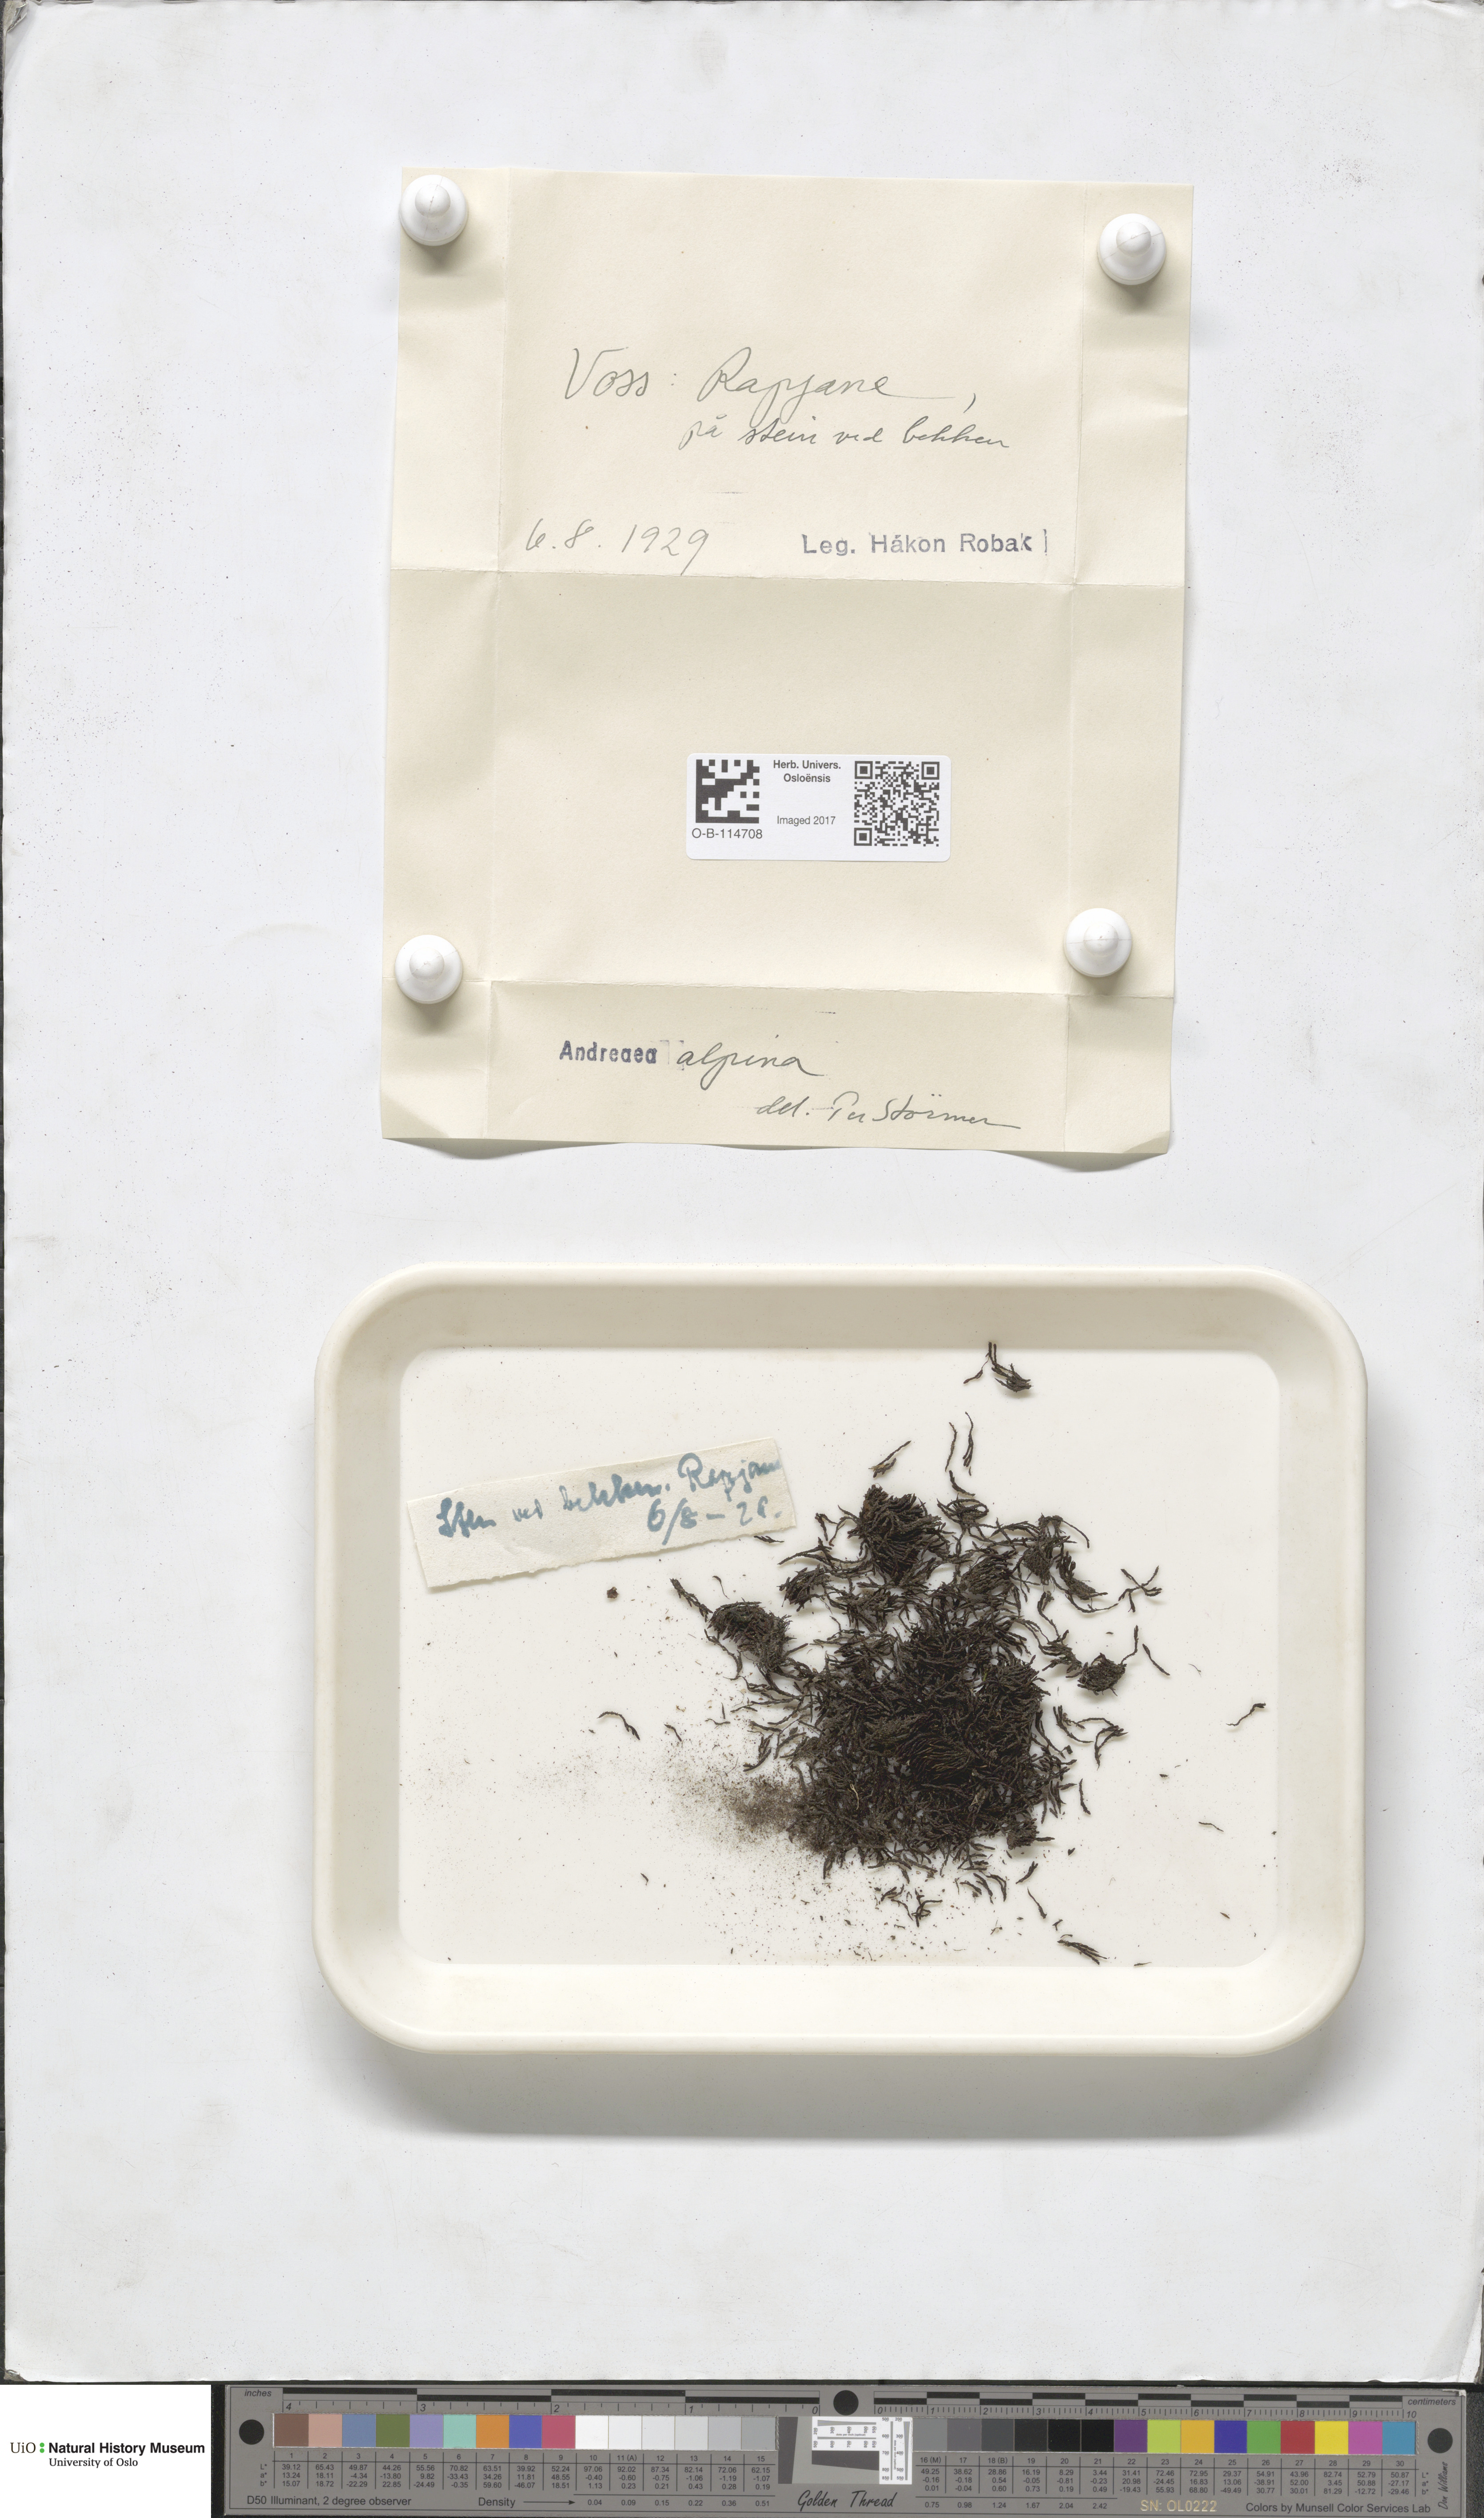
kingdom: Plantae
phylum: Bryophyta
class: Andreaeopsida
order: Andreaeales
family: Andreaeaceae
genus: Andreaea
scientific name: Andreaea hookeri
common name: Alpine rock-moss
